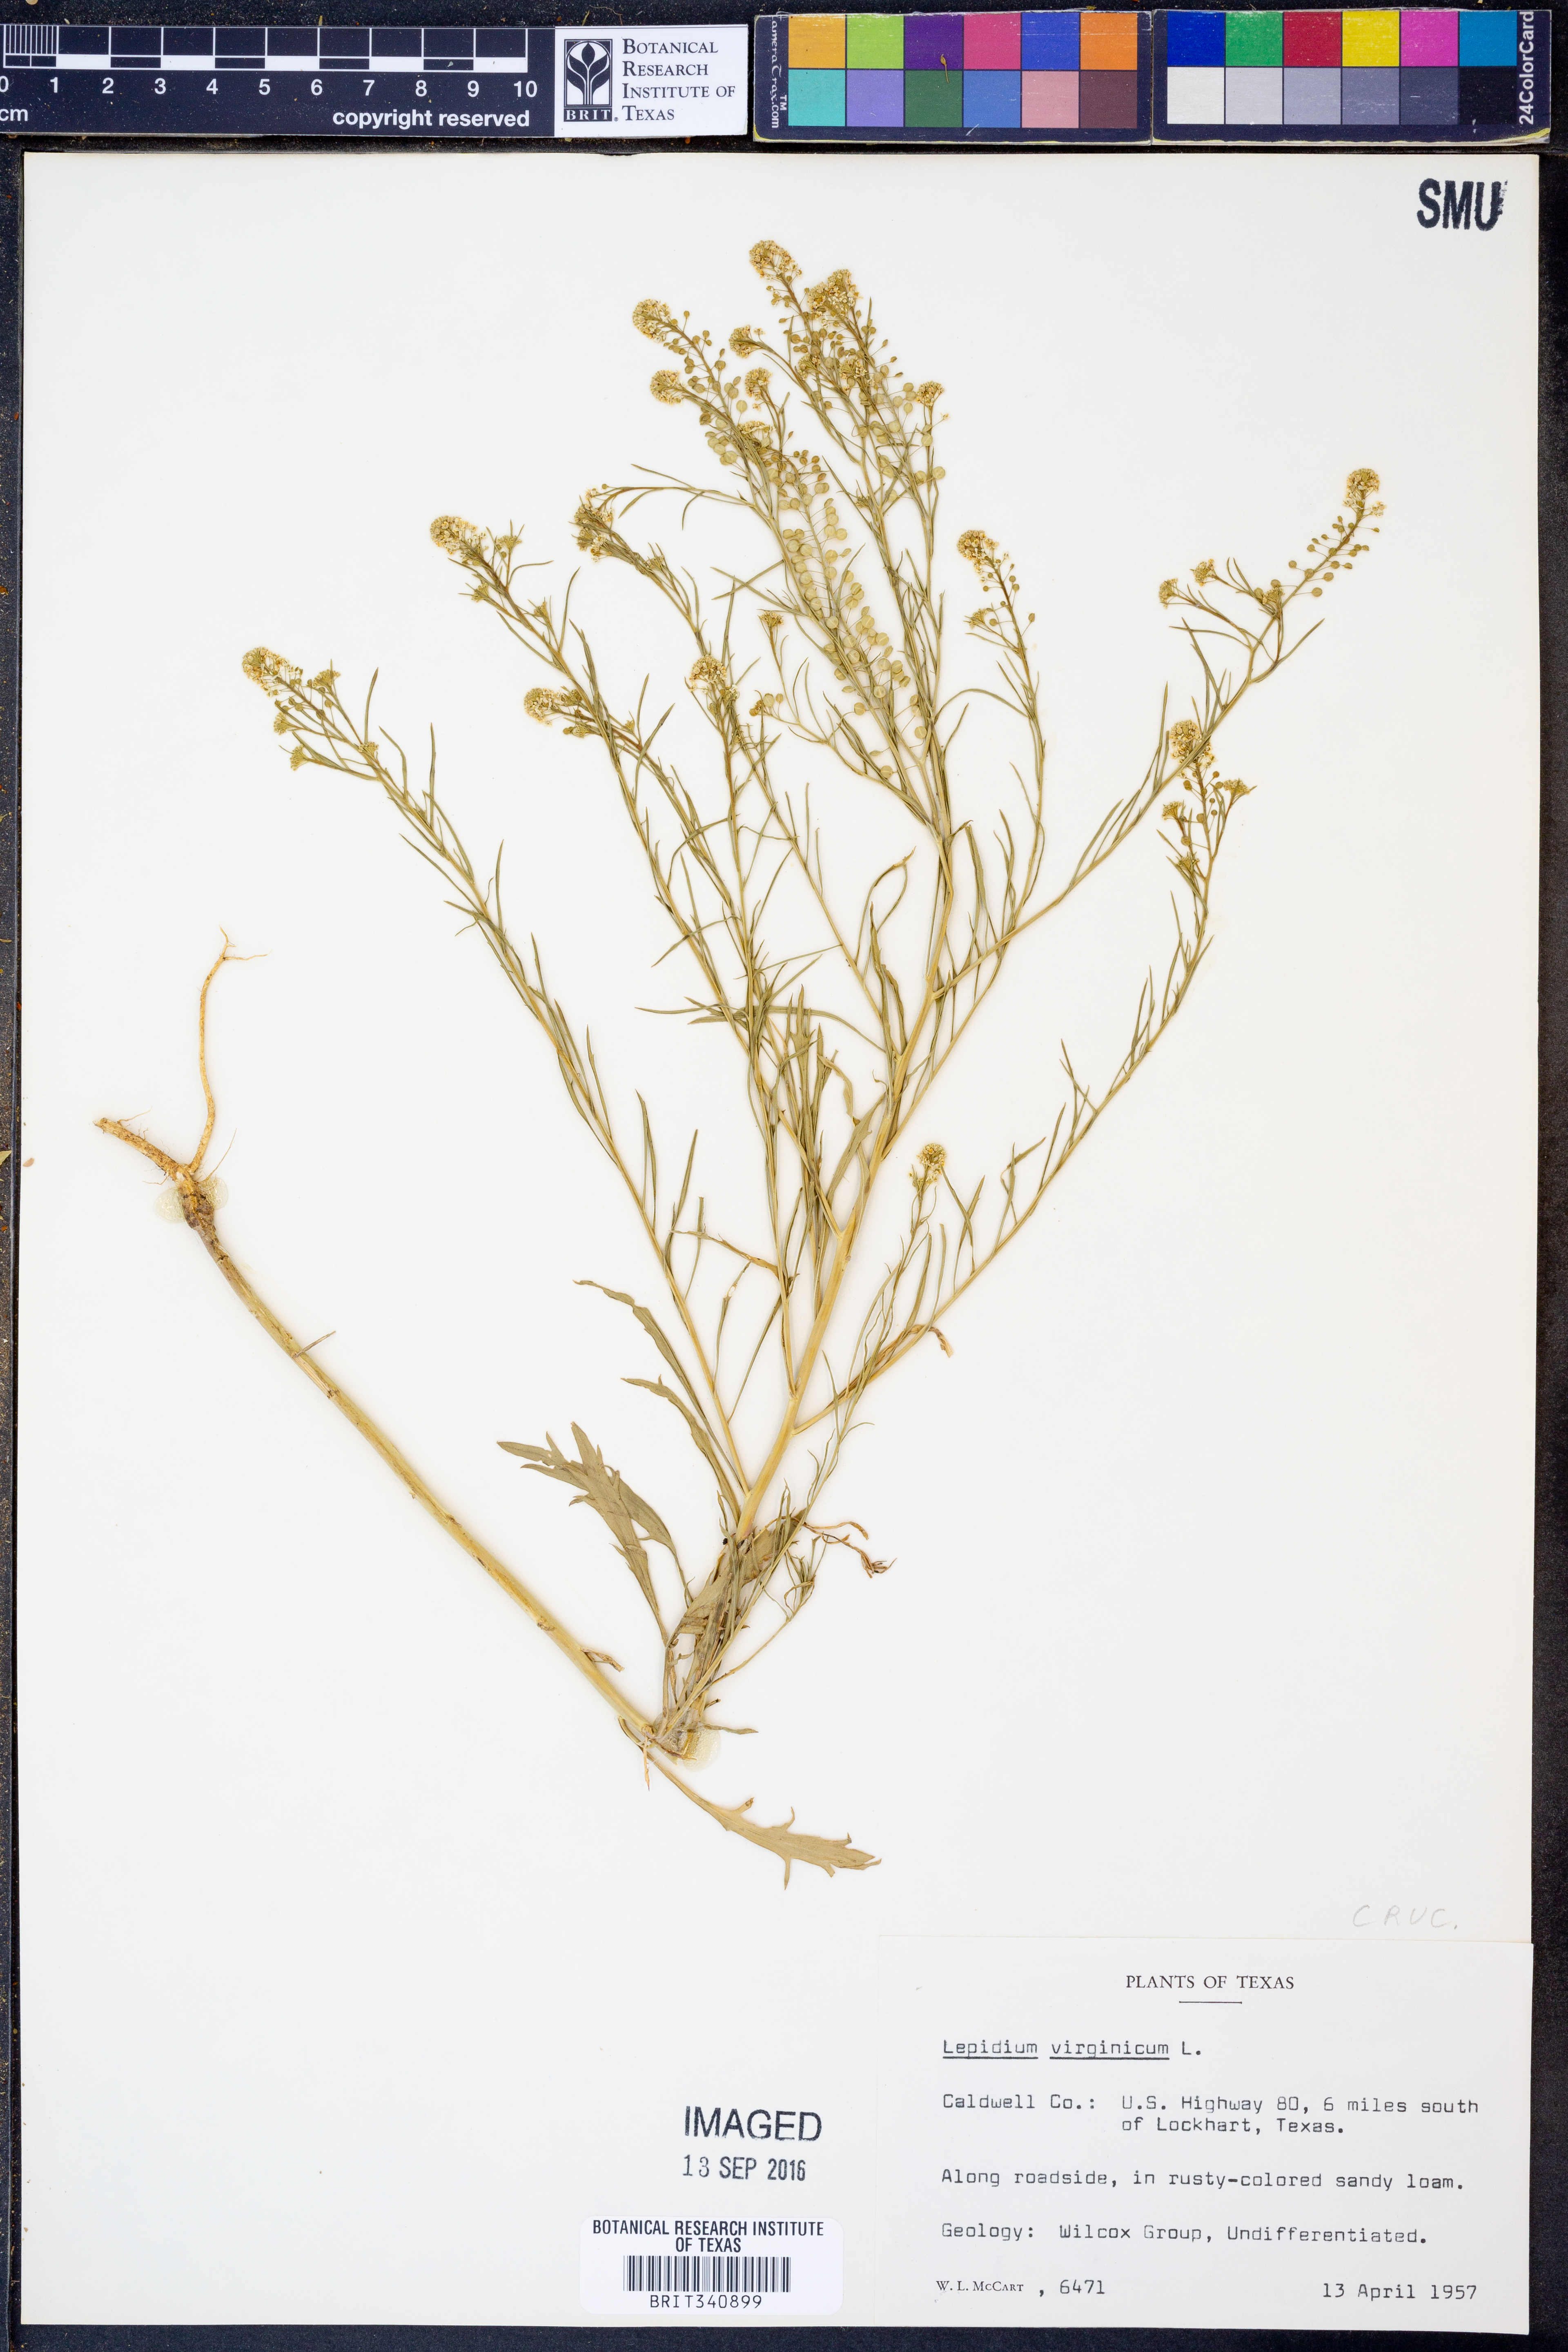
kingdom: Plantae
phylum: Tracheophyta
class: Magnoliopsida
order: Brassicales
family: Brassicaceae
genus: Lepidium
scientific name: Lepidium virginicum
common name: Least pepperwort
